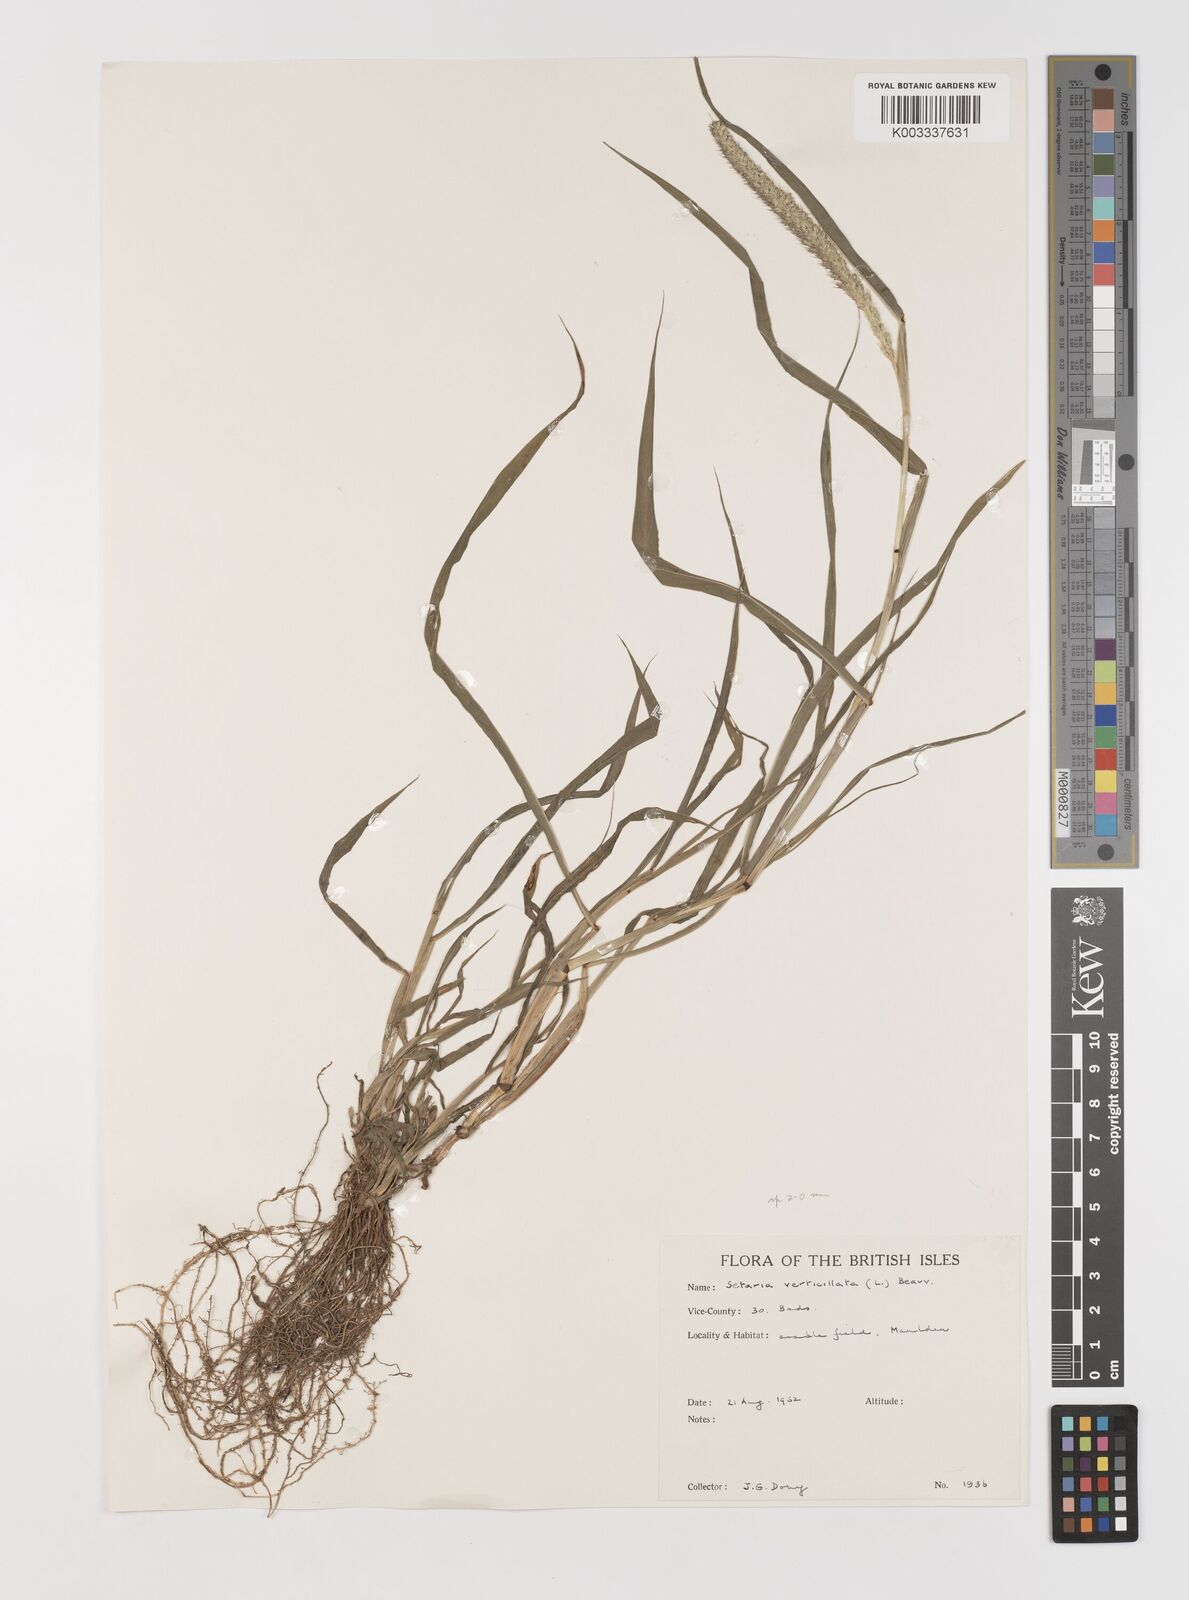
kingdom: Plantae
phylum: Tracheophyta
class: Liliopsida
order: Poales
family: Poaceae
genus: Setaria
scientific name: Setaria verticillata
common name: Hooked bristlegrass
